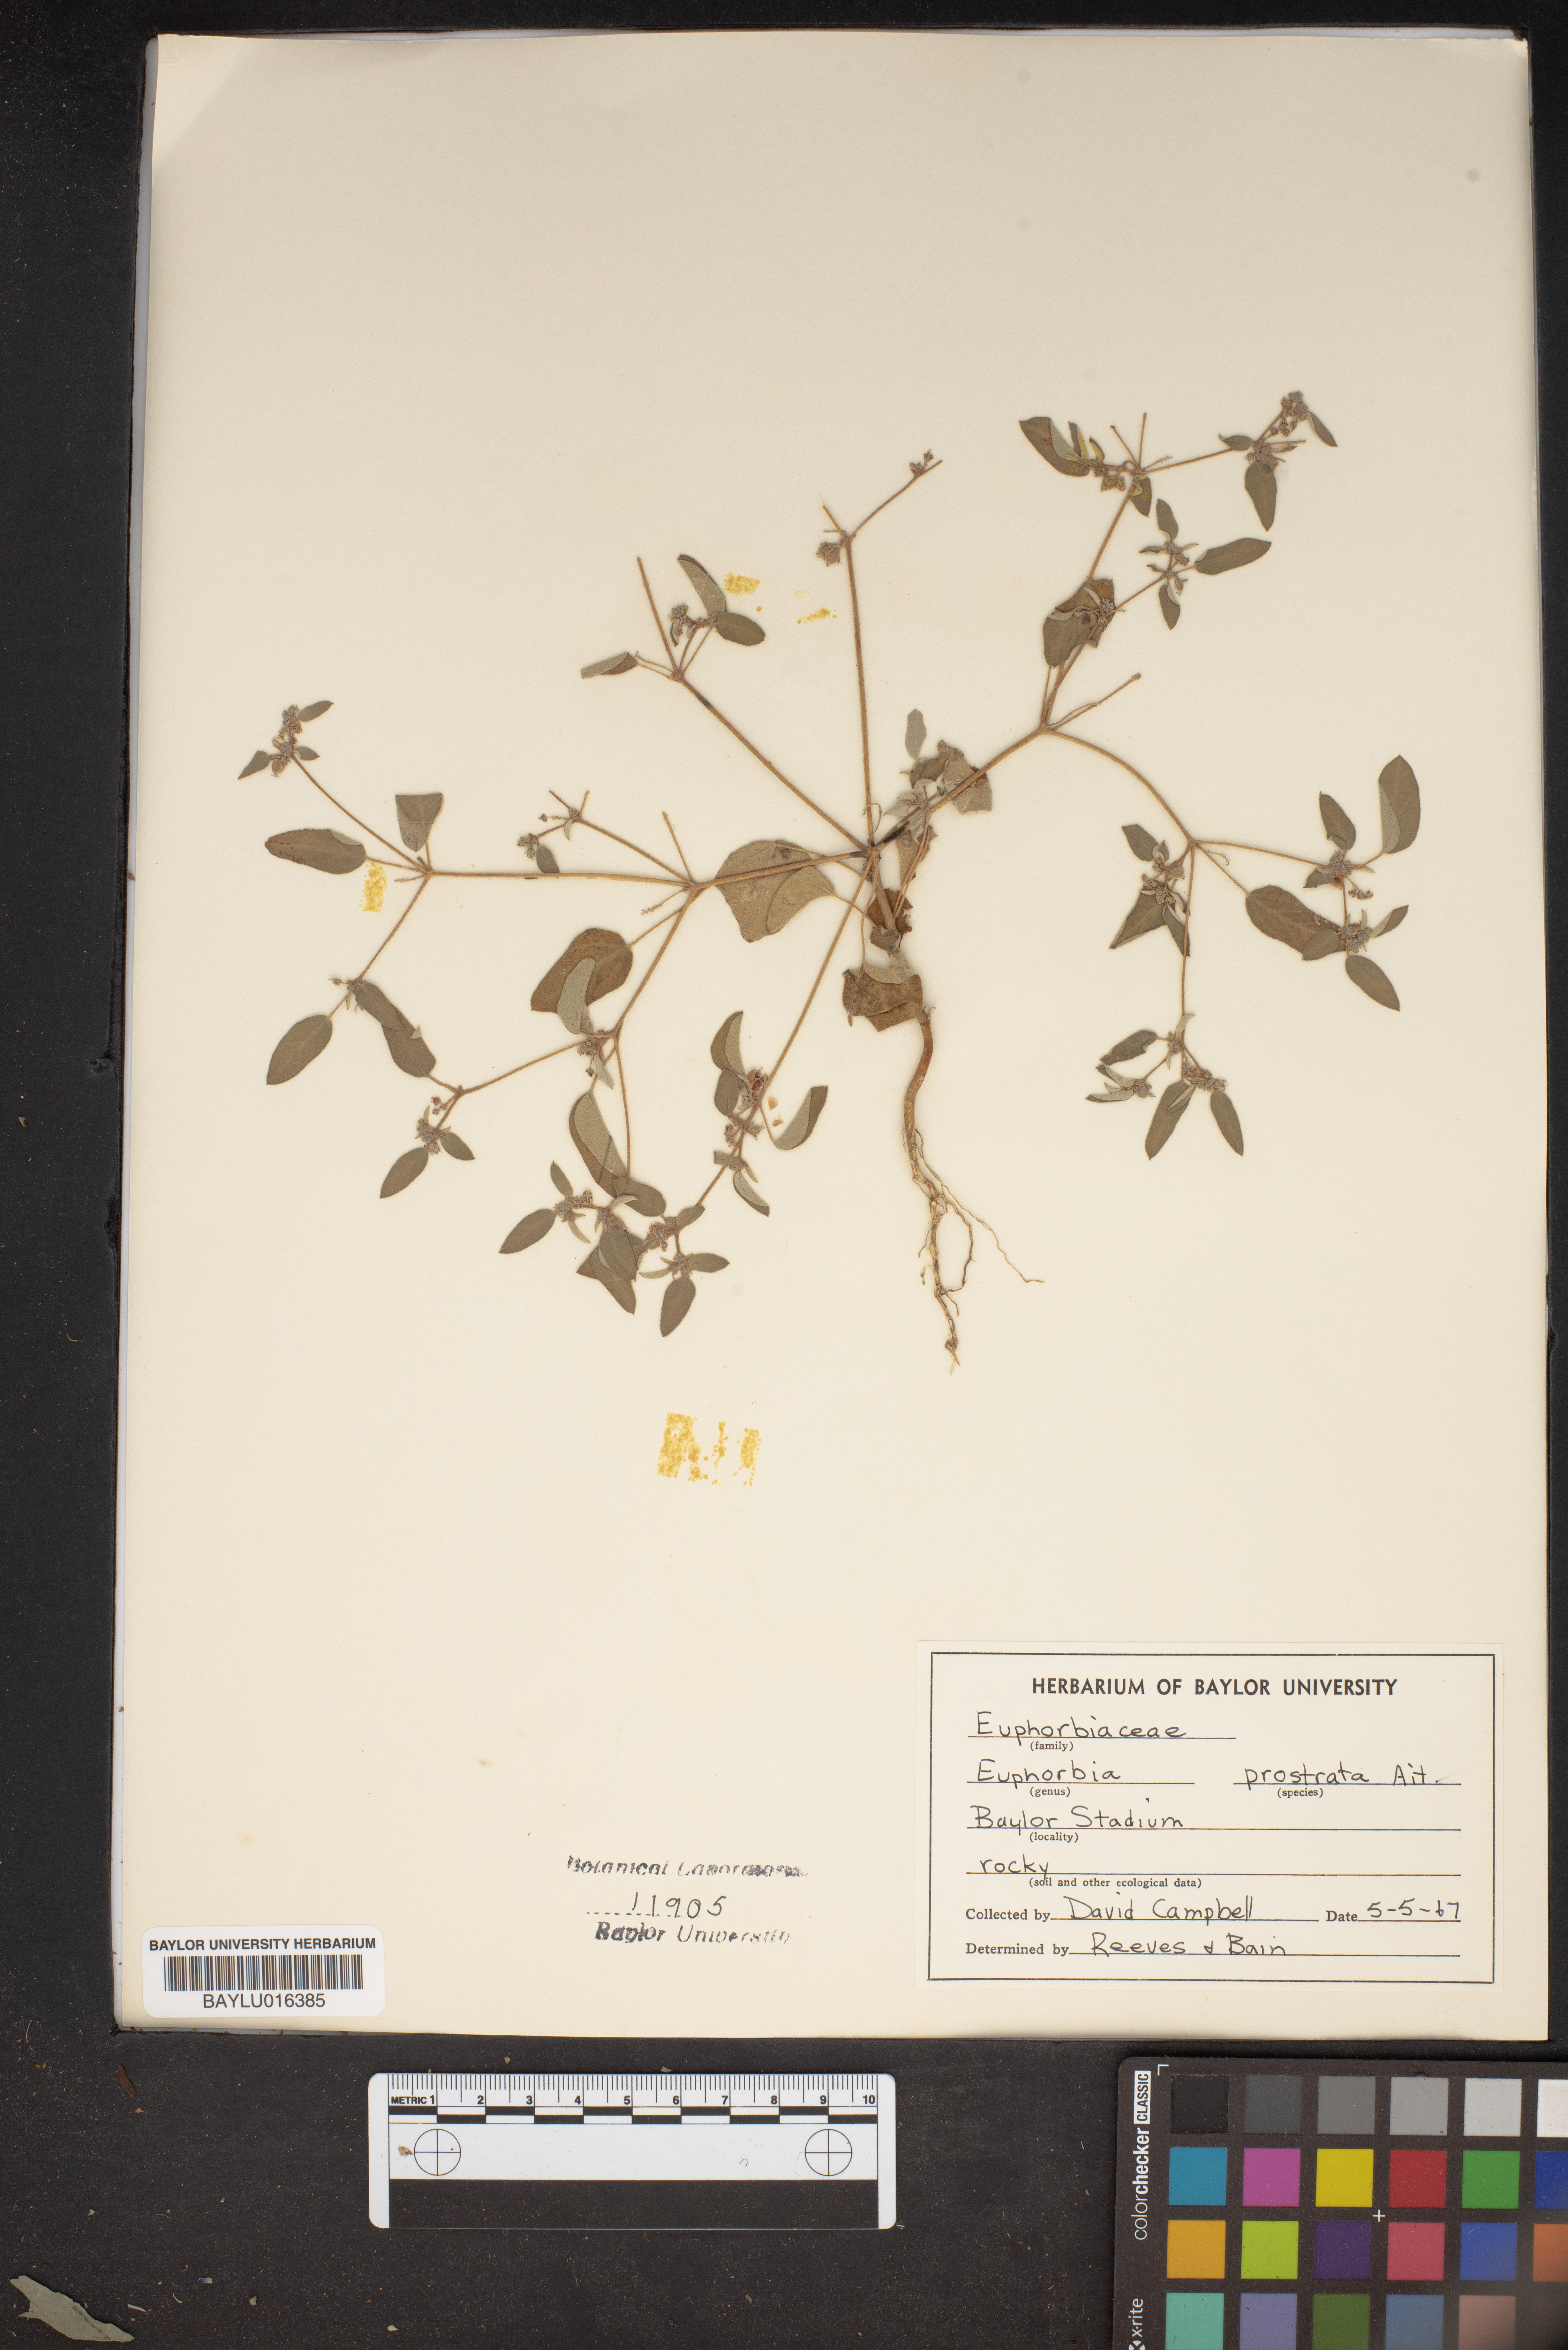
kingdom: Plantae
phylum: Tracheophyta
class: Magnoliopsida
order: Malpighiales
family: Euphorbiaceae
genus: Euphorbia
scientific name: Euphorbia prostrata
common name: Prostrate sandmat
